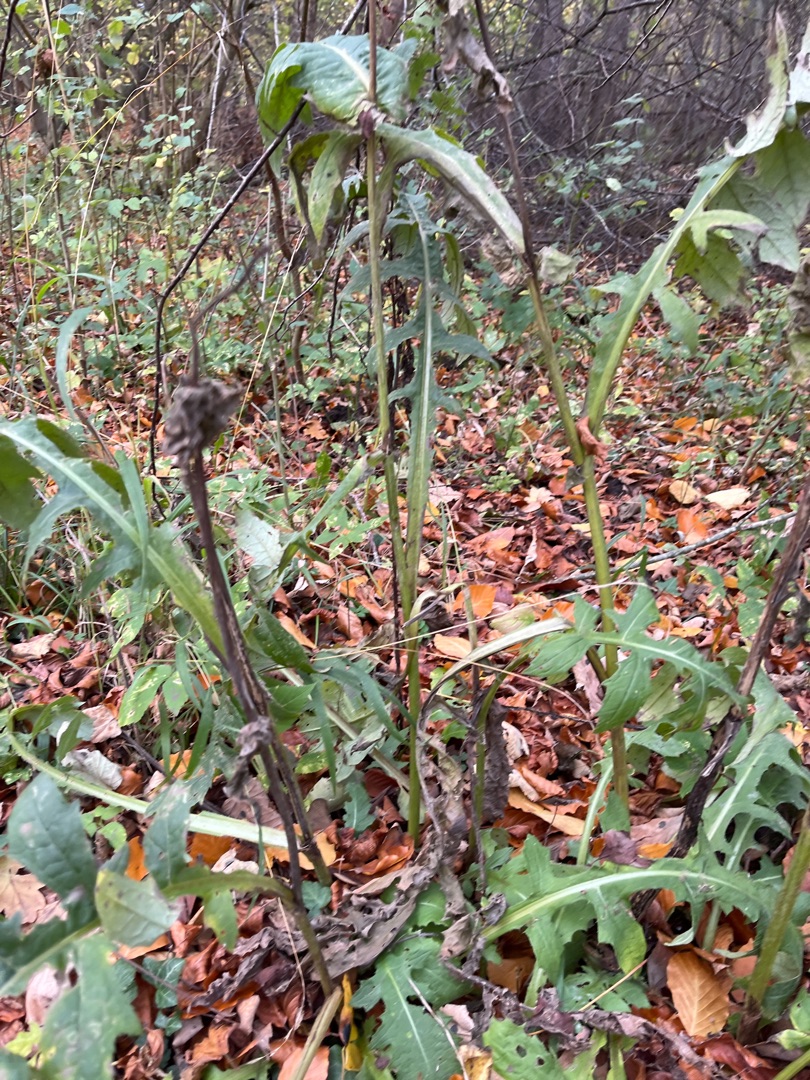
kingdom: Plantae
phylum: Tracheophyta
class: Magnoliopsida
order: Asterales
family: Asteraceae
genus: Cirsium
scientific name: Cirsium oleraceum
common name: Kål-tidsel
